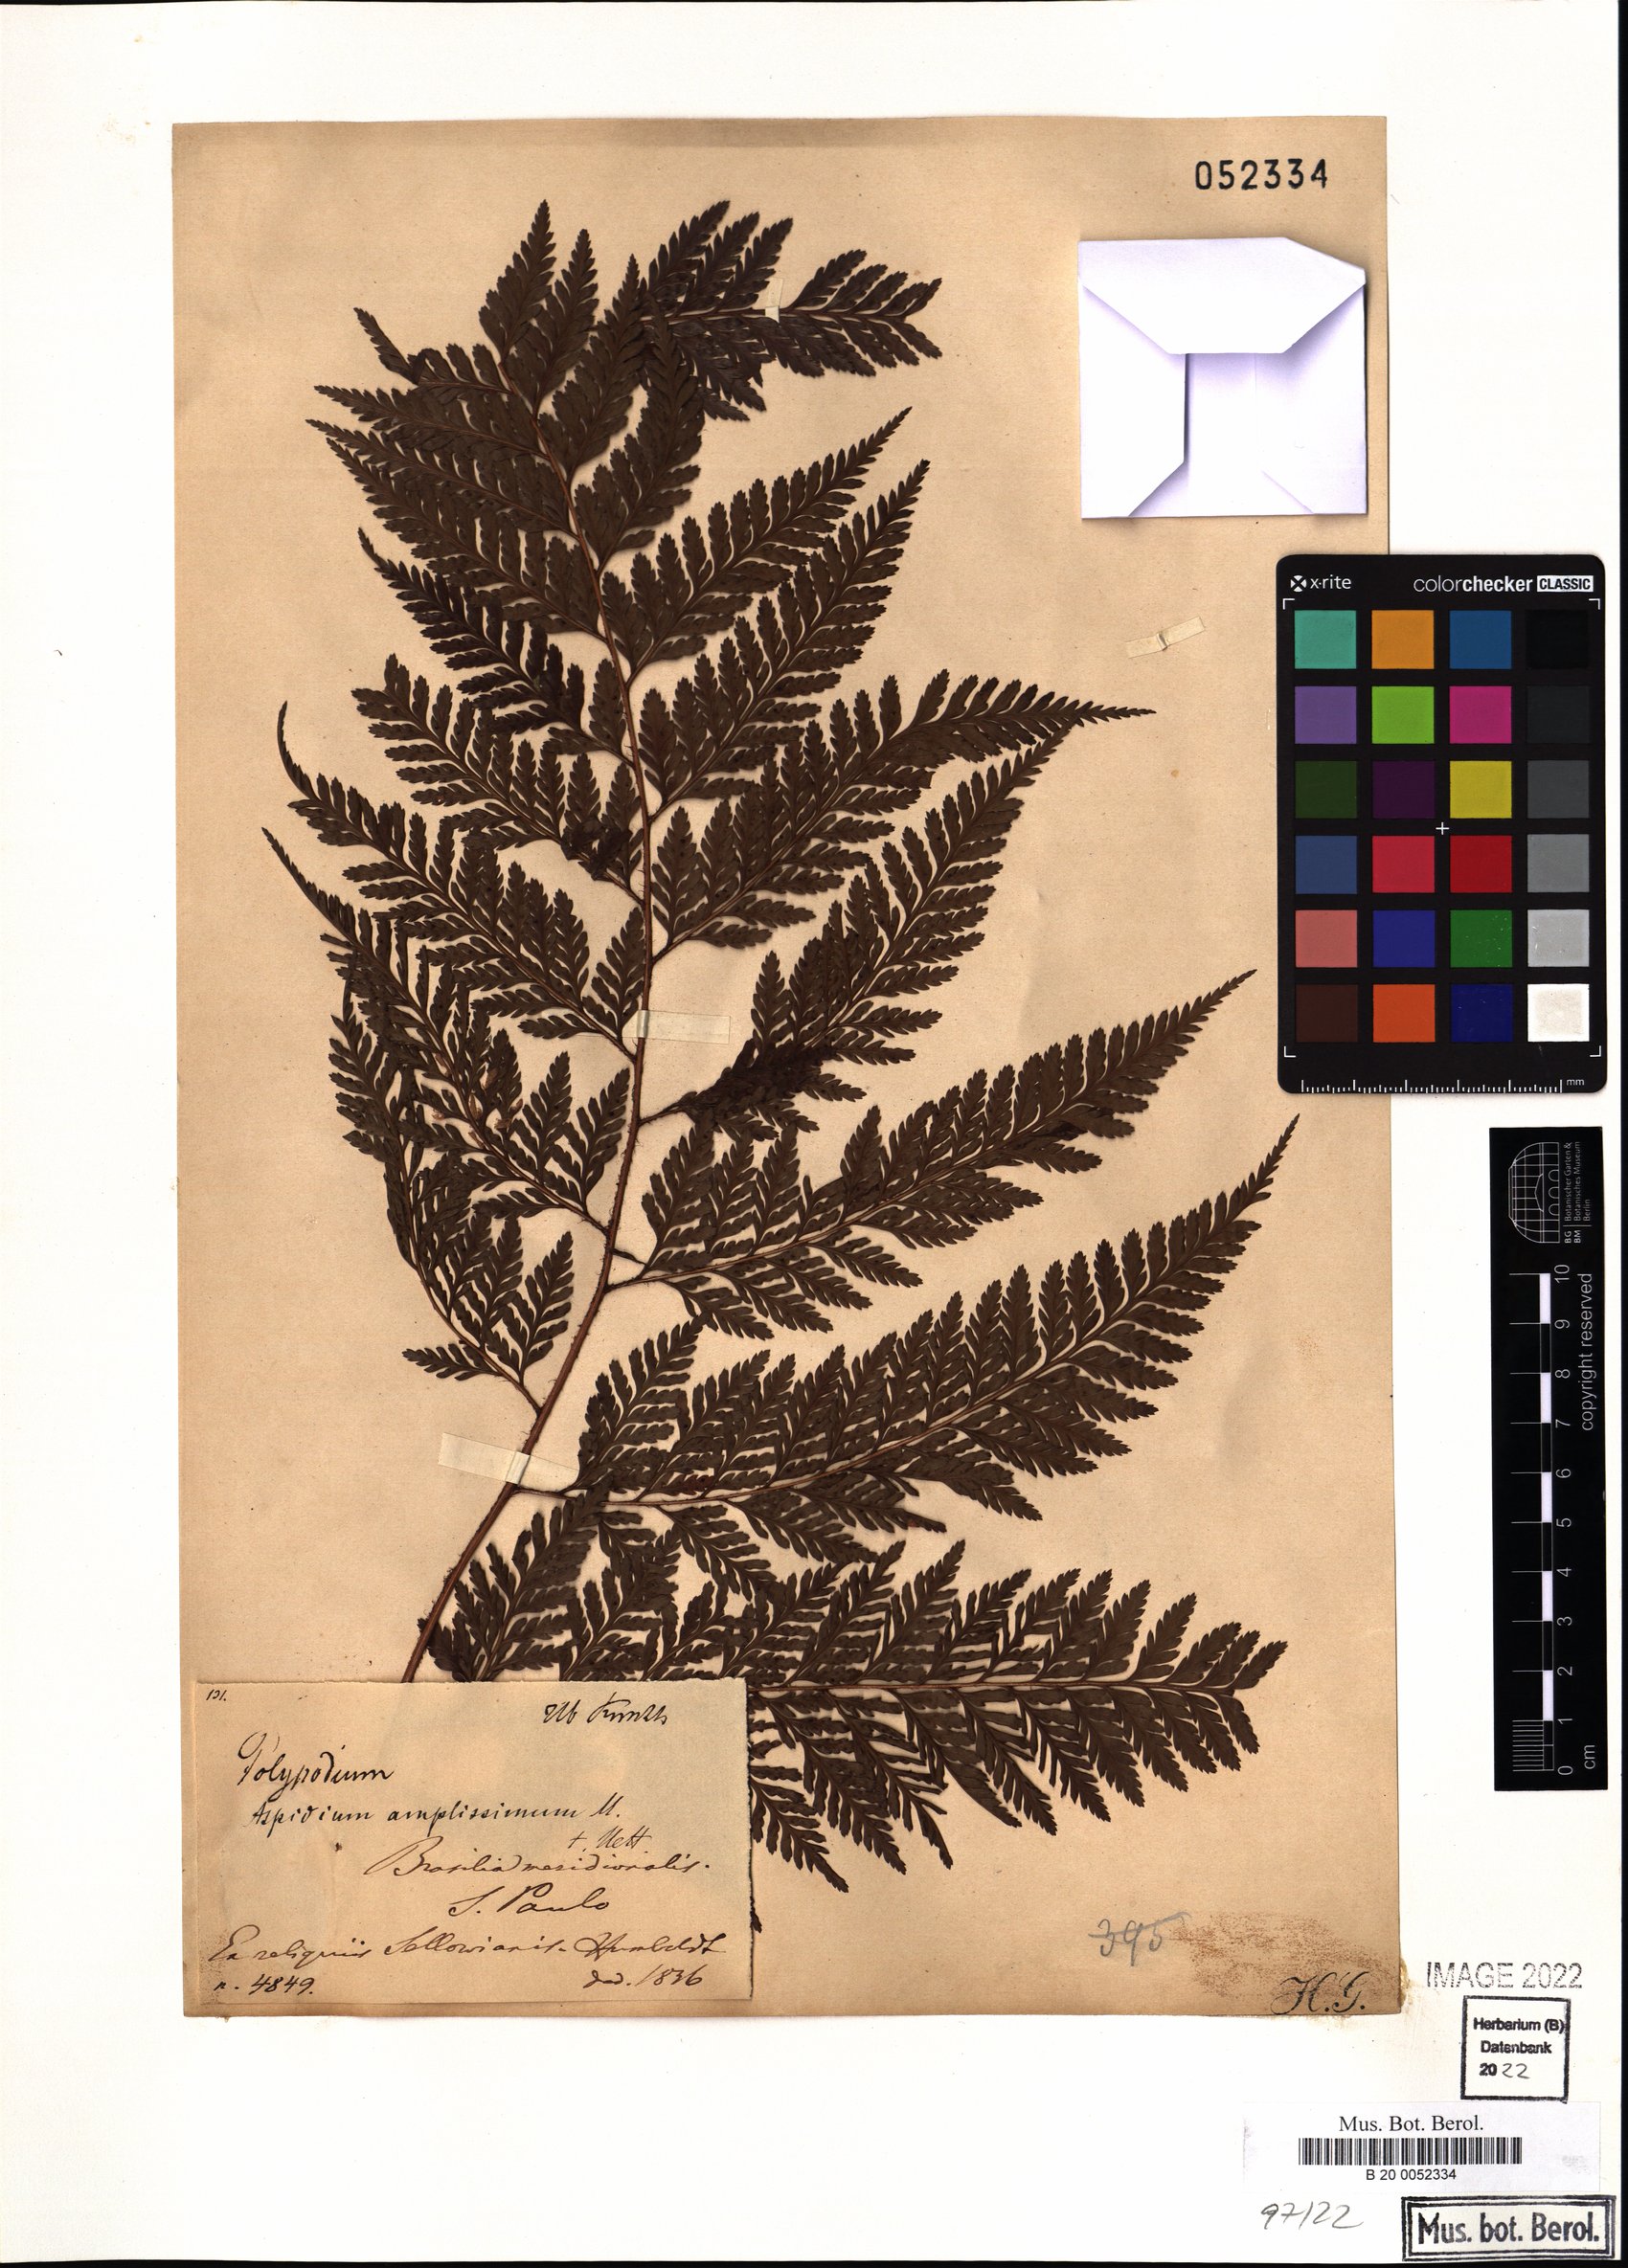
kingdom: Plantae
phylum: Tracheophyta
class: Polypodiopsida
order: Polypodiales
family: Dryopteridaceae
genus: Lastreopsis
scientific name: Lastreopsis amplissima
